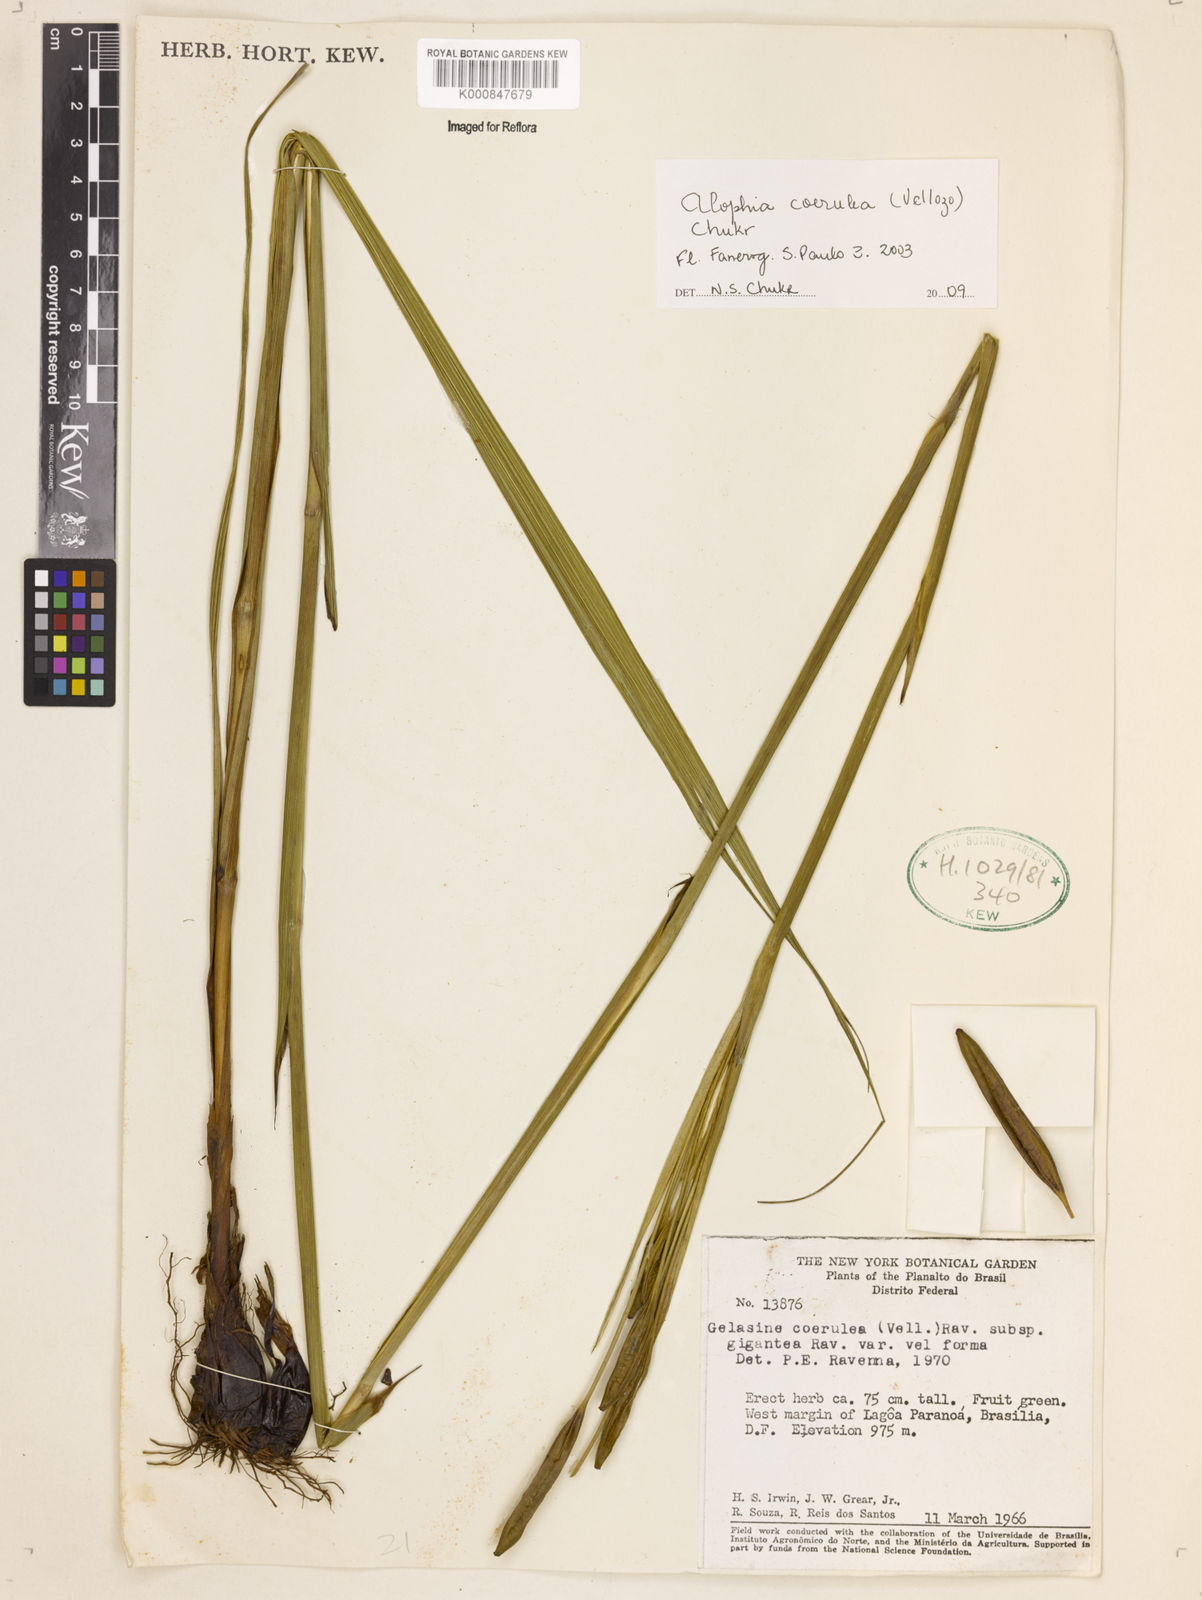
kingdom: Plantae
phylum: Tracheophyta
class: Liliopsida
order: Asparagales
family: Iridaceae
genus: Gelasine
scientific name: Gelasine coerulea
